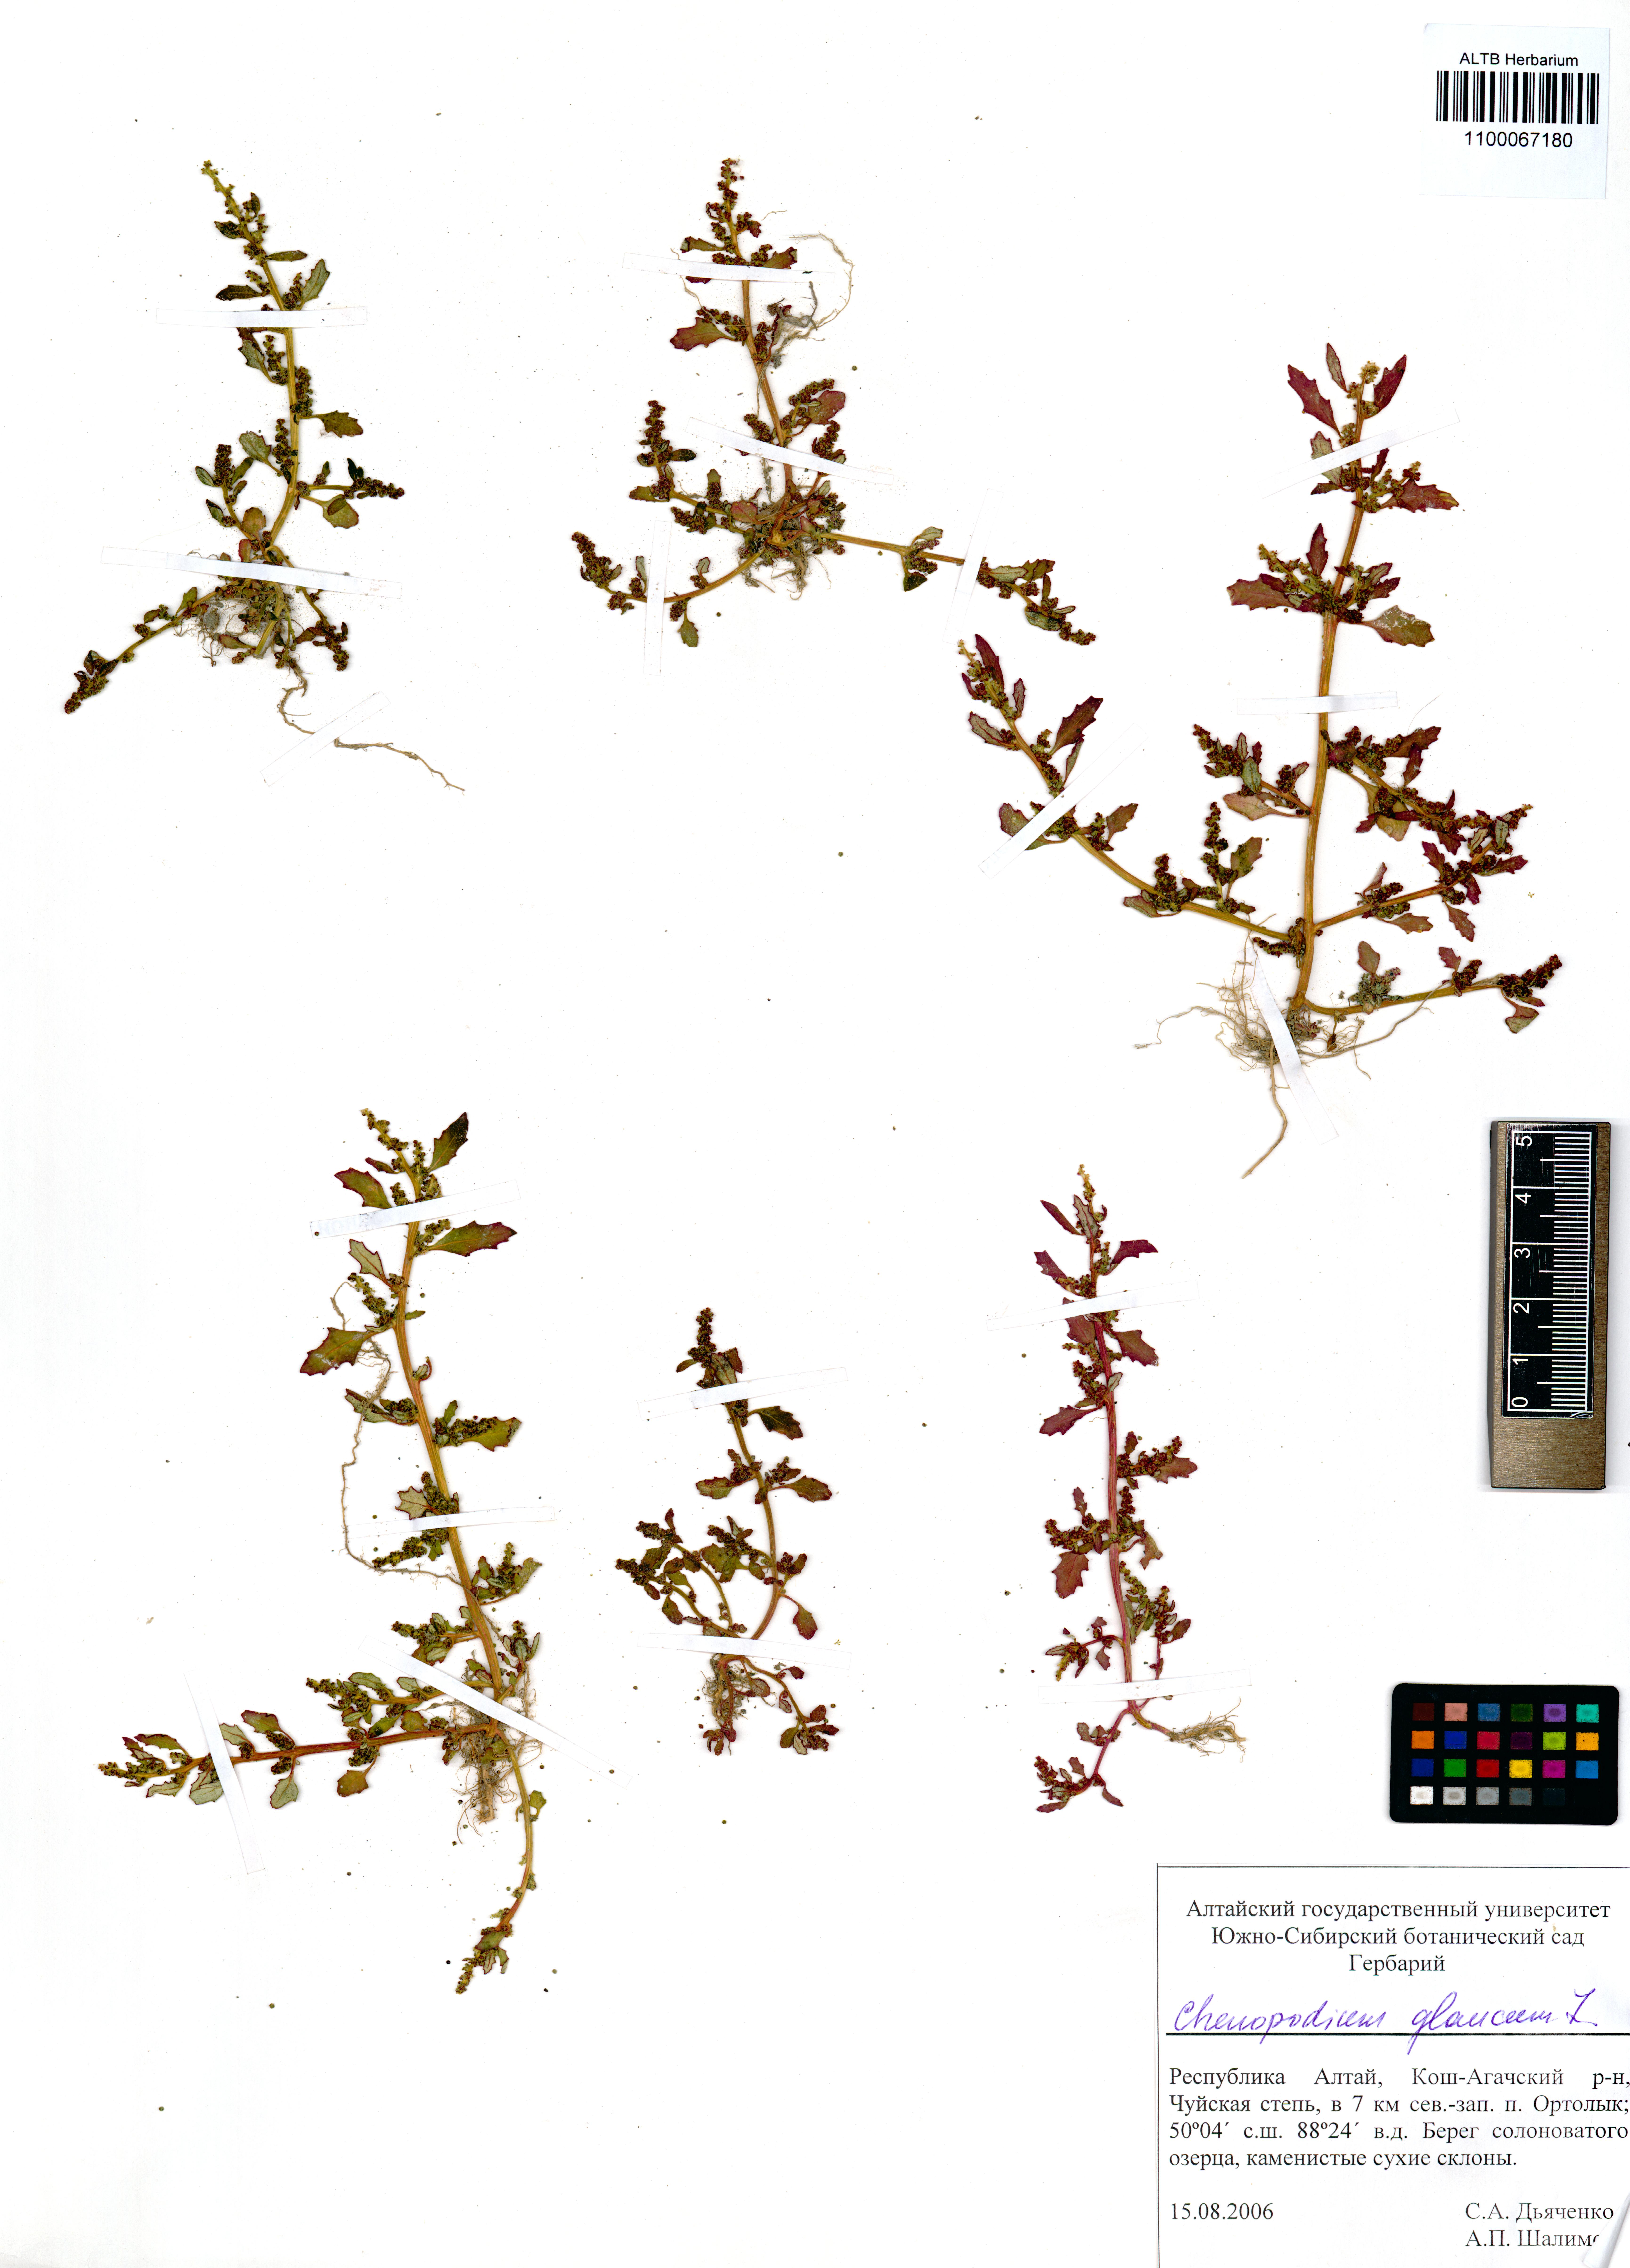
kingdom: Plantae
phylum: Tracheophyta
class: Magnoliopsida
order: Caryophyllales
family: Amaranthaceae
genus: Oxybasis
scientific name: Oxybasis glauca
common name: Glaucous goosefoot
